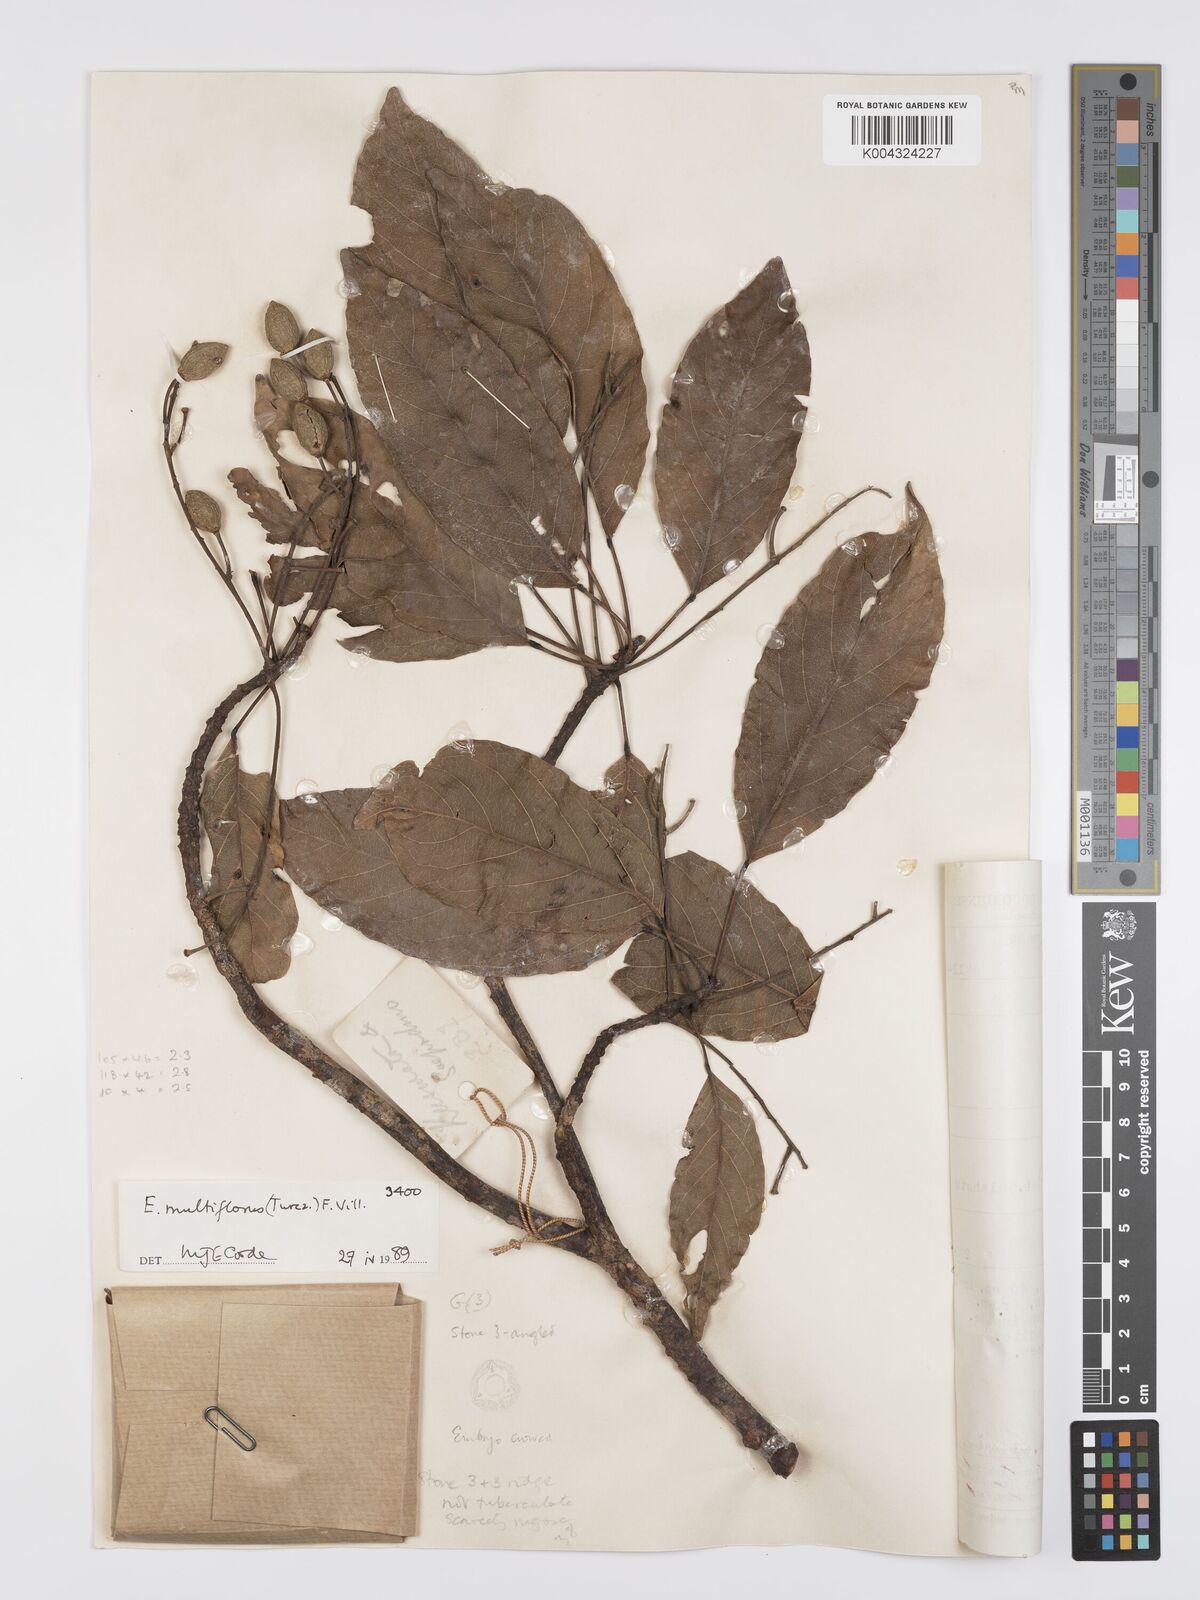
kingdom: Plantae
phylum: Tracheophyta
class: Magnoliopsida
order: Oxalidales
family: Elaeocarpaceae
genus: Elaeocarpus
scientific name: Elaeocarpus multiflorus
